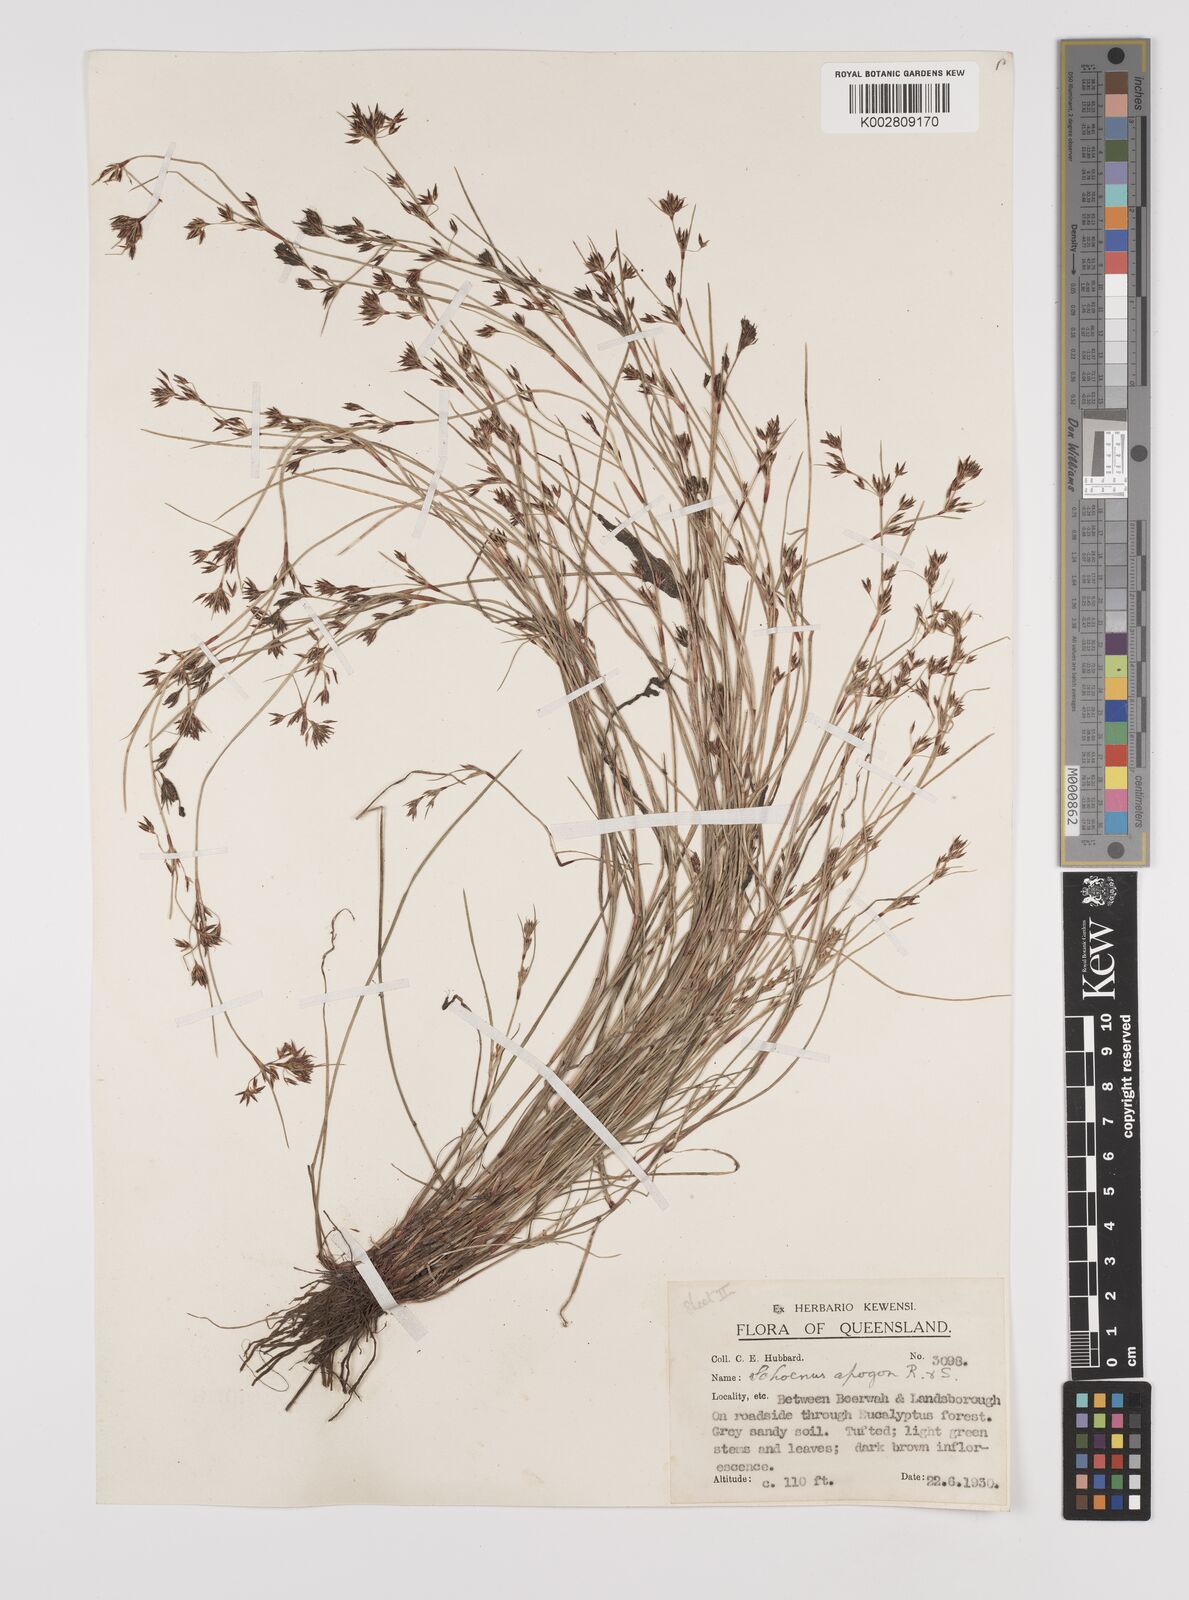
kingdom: Plantae
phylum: Tracheophyta
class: Liliopsida
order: Poales
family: Cyperaceae
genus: Schoenus
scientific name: Schoenus apogon
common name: Smooth bogrush
